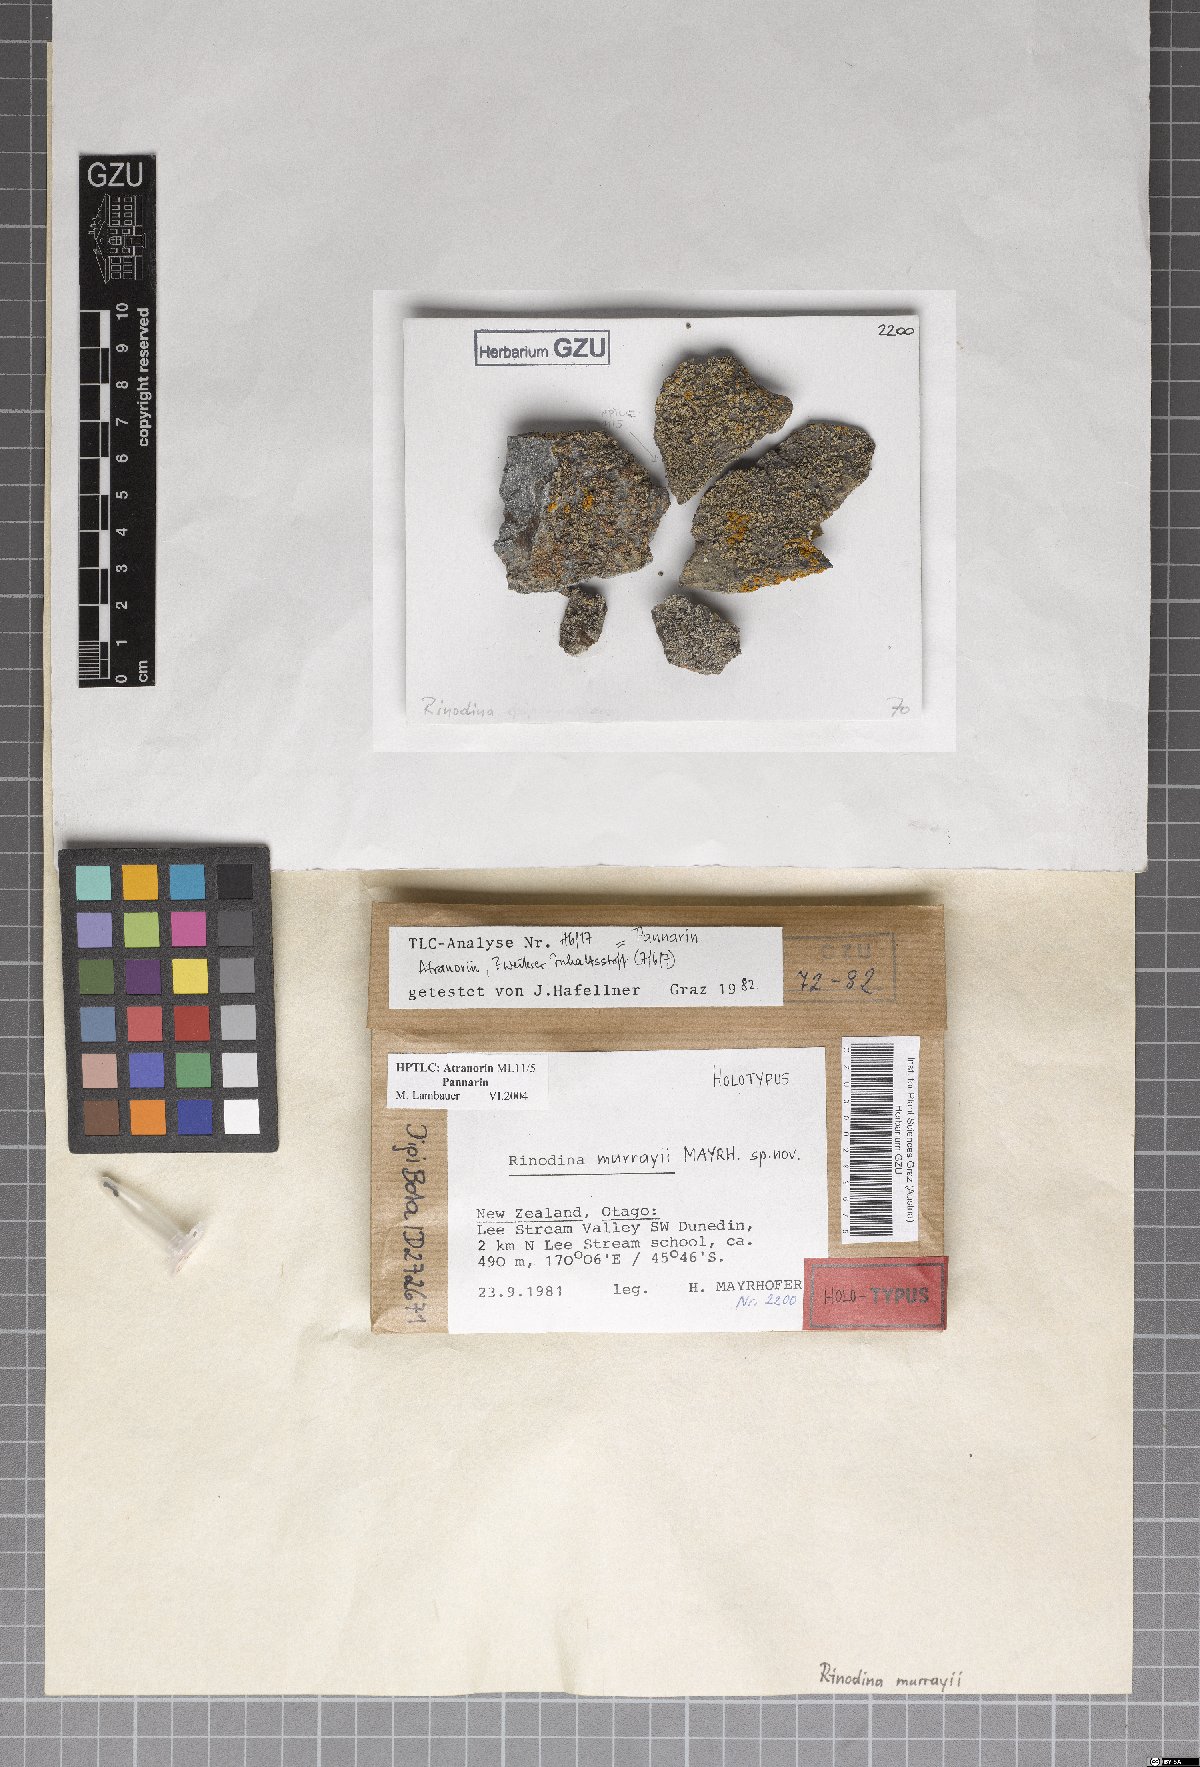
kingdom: Fungi
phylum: Ascomycota
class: Lecanoromycetes
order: Caliciales
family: Physciaceae
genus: Rinodina
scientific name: Rinodina murrayi
